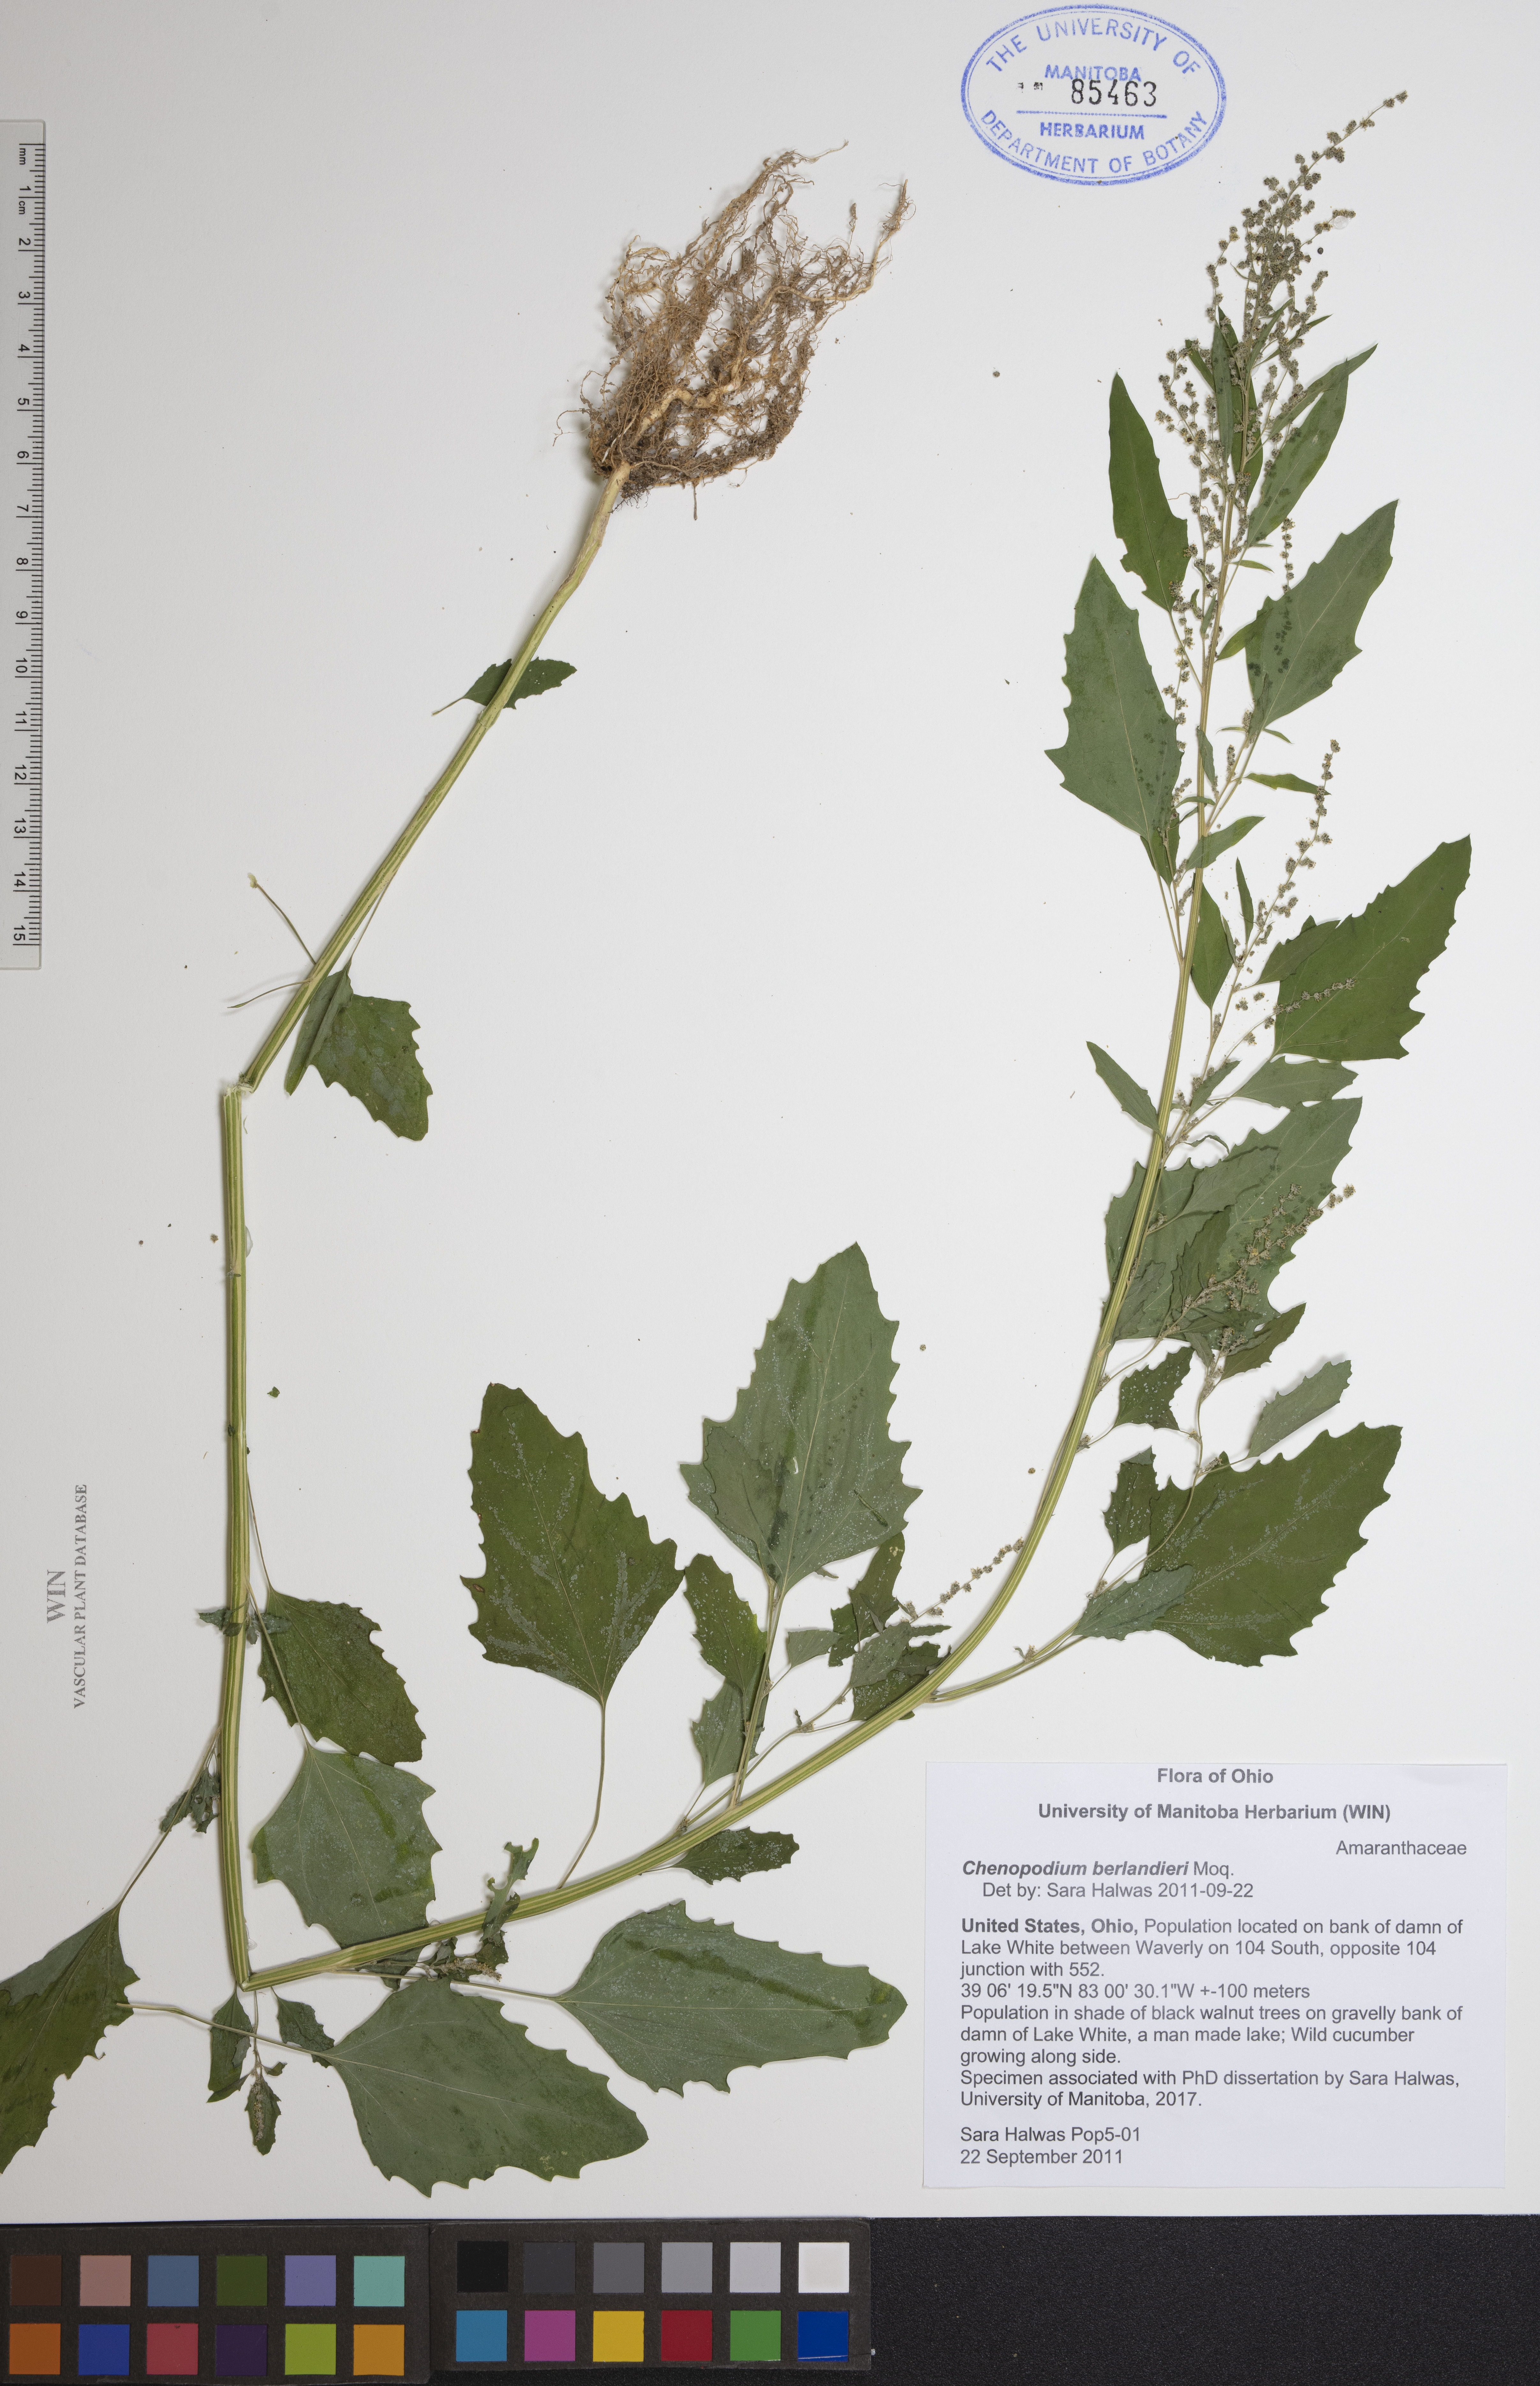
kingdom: Plantae
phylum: Tracheophyta
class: Magnoliopsida
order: Caryophyllales
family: Amaranthaceae
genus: Chenopodium
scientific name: Chenopodium berlandieri
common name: Pit-seed goosefoot
